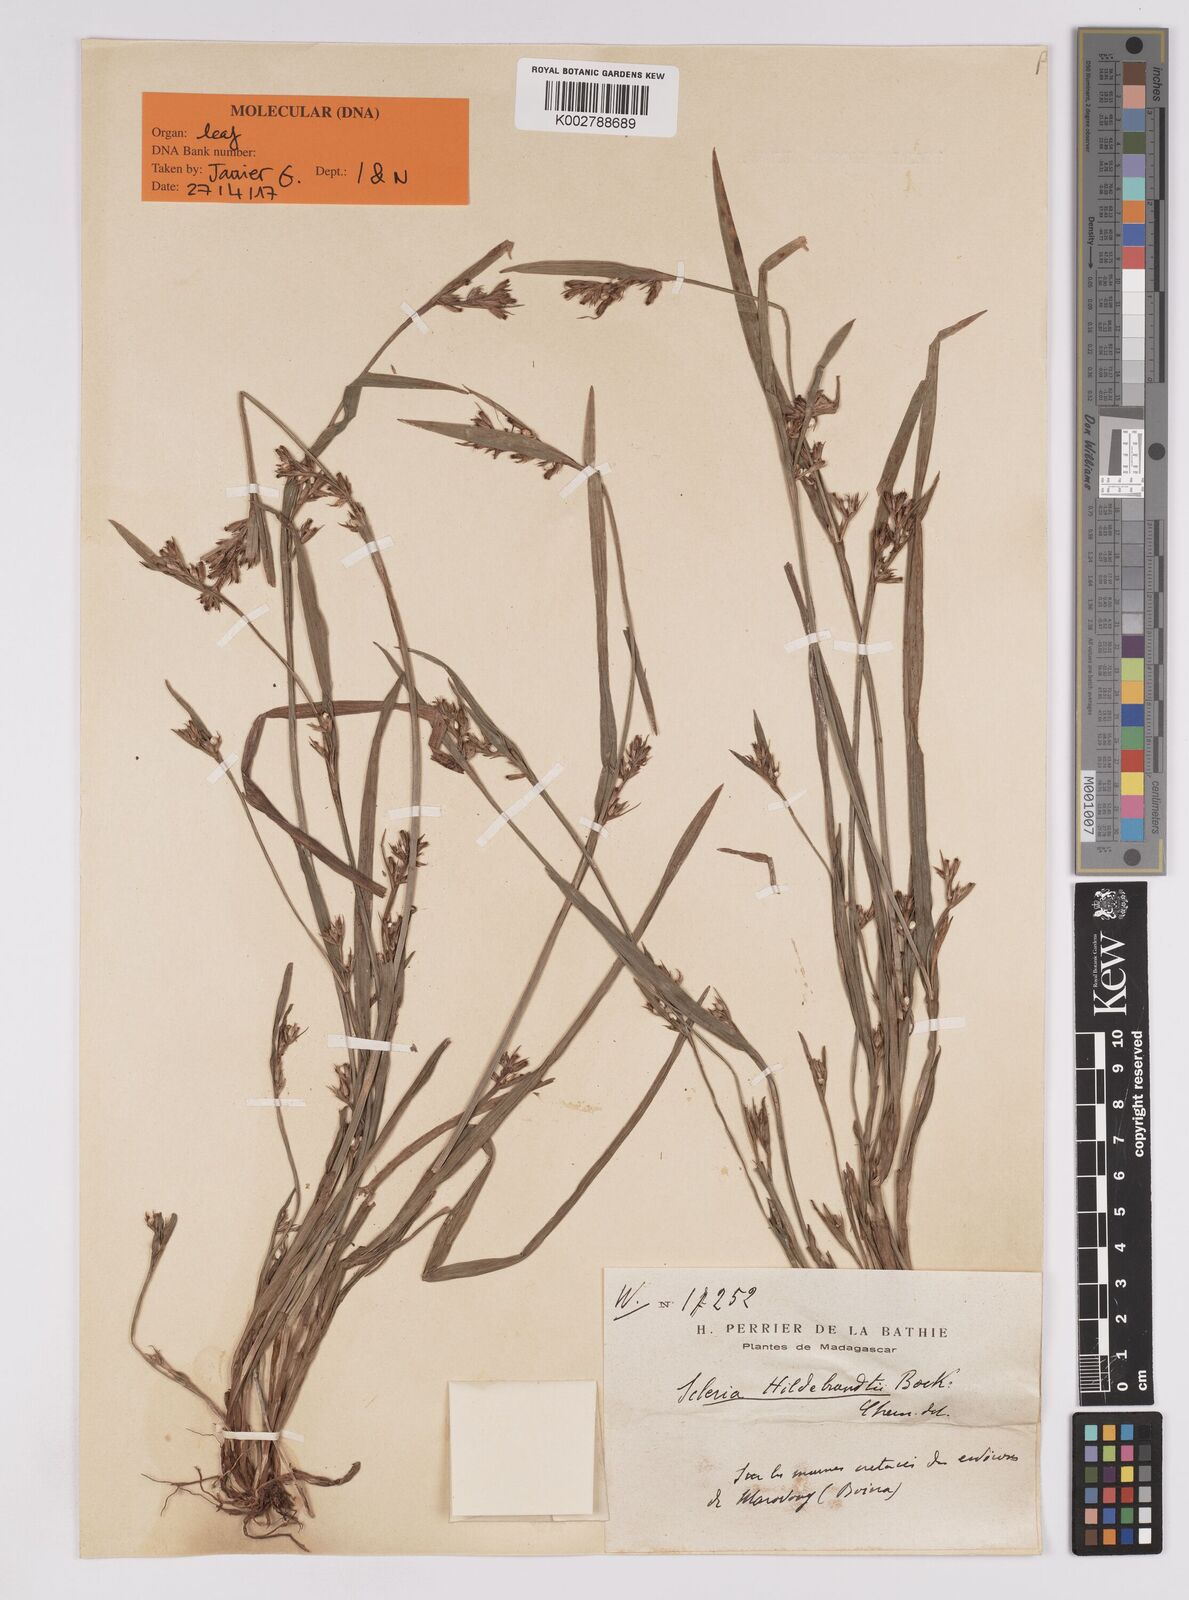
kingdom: Plantae
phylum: Tracheophyta
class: Liliopsida
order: Poales
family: Cyperaceae
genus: Scleria
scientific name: Scleria hildebrandtii
